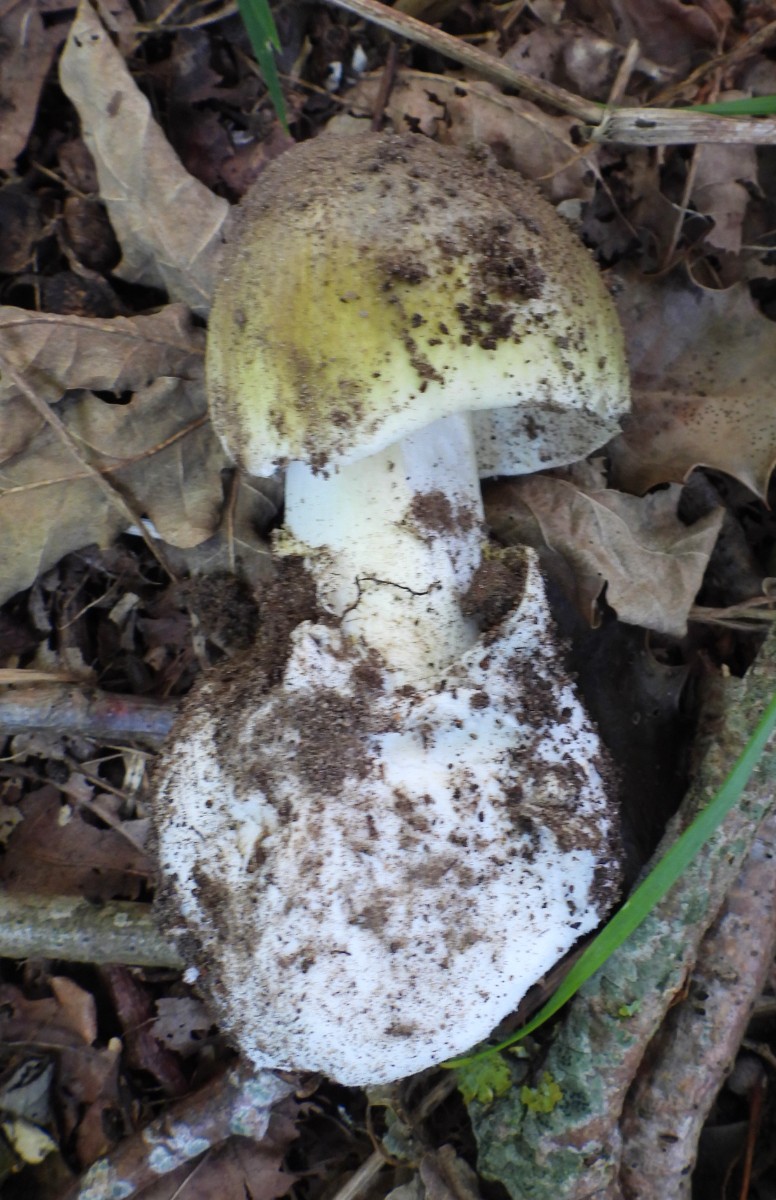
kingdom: Fungi
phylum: Basidiomycota
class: Agaricomycetes
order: Agaricales
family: Amanitaceae
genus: Amanita
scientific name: Amanita phalloides
